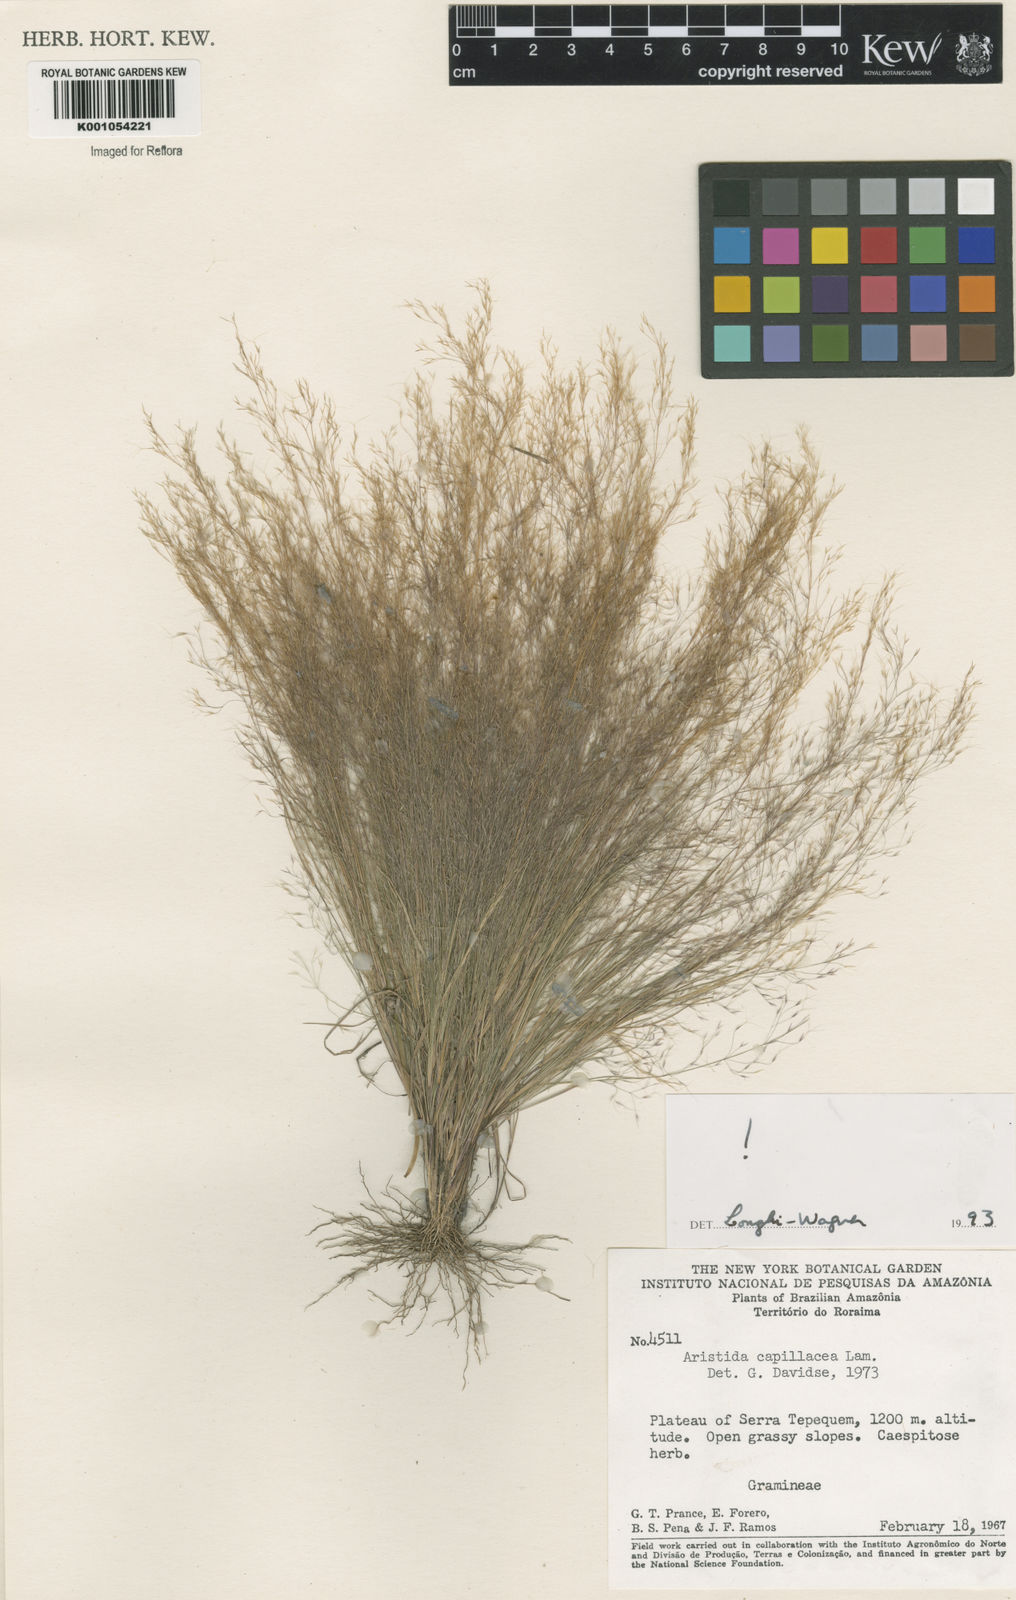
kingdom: Plantae
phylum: Tracheophyta
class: Liliopsida
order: Poales
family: Poaceae
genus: Aristida
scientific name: Aristida capillacea
